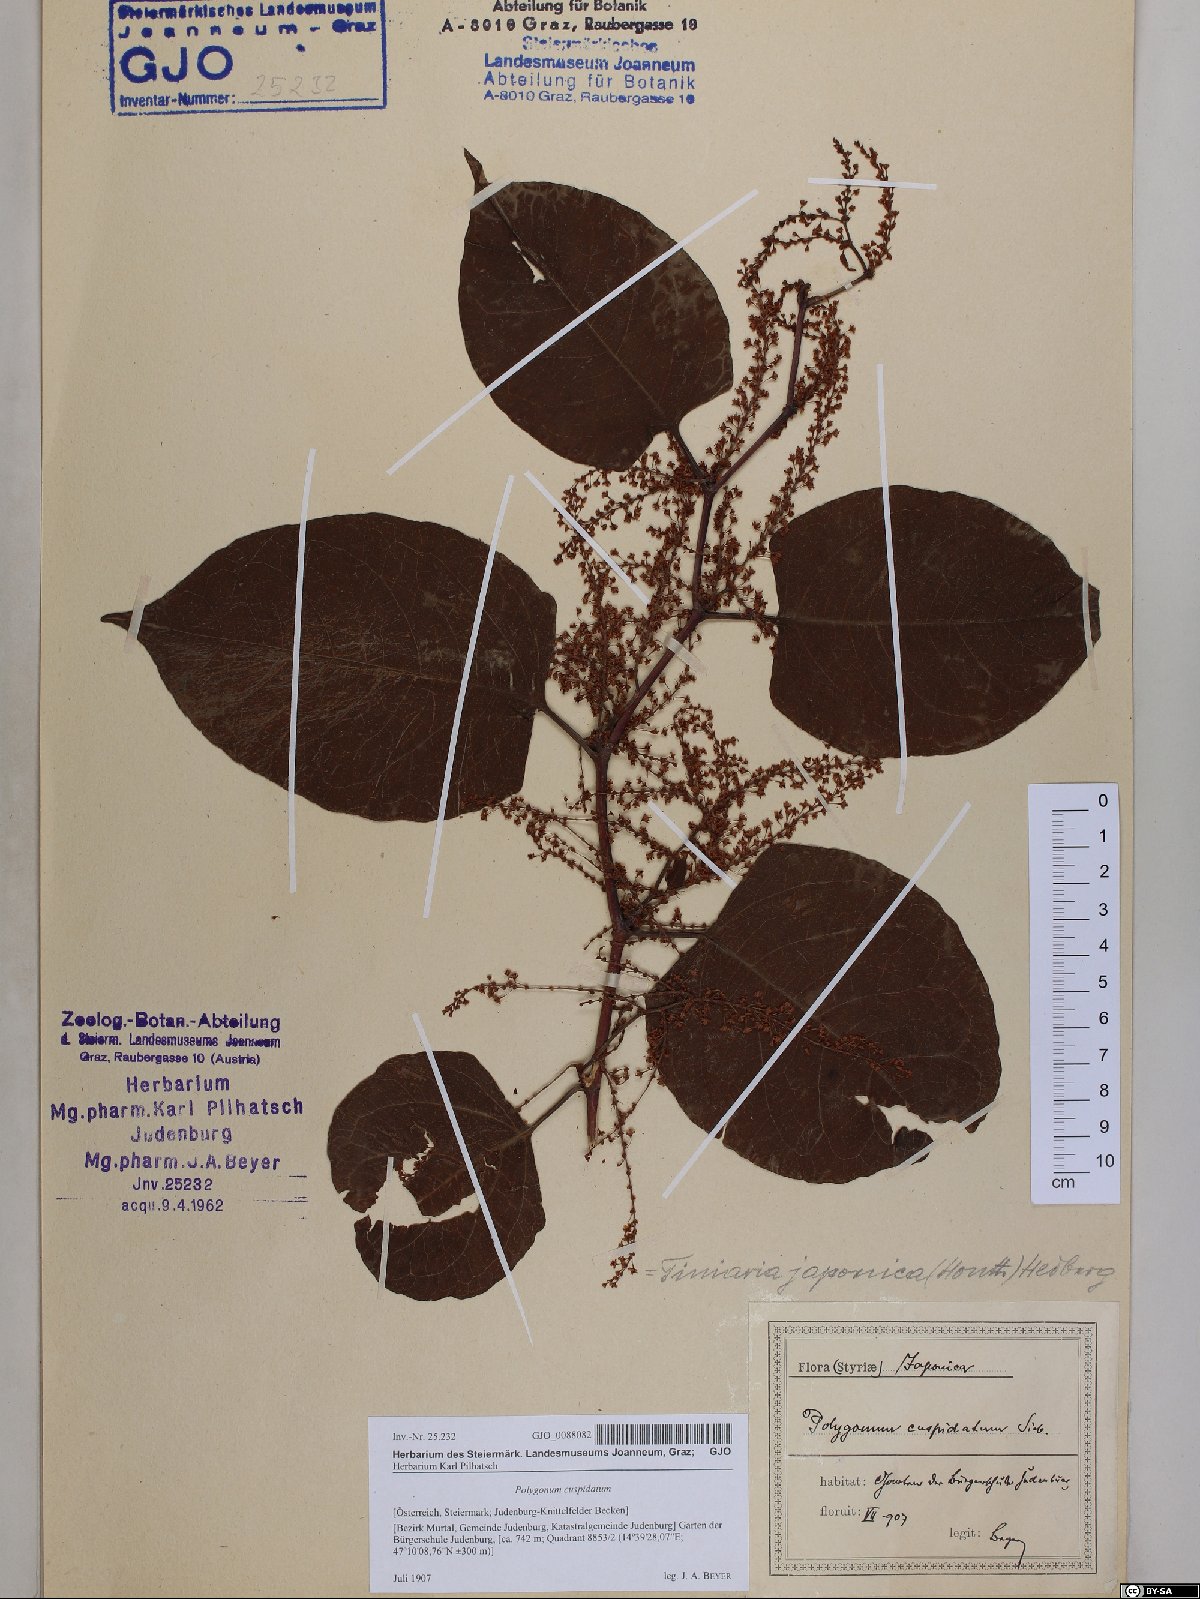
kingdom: Plantae
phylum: Tracheophyta
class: Magnoliopsida
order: Caryophyllales
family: Polygonaceae
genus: Reynoutria
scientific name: Reynoutria japonica
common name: Japanese knotweed
